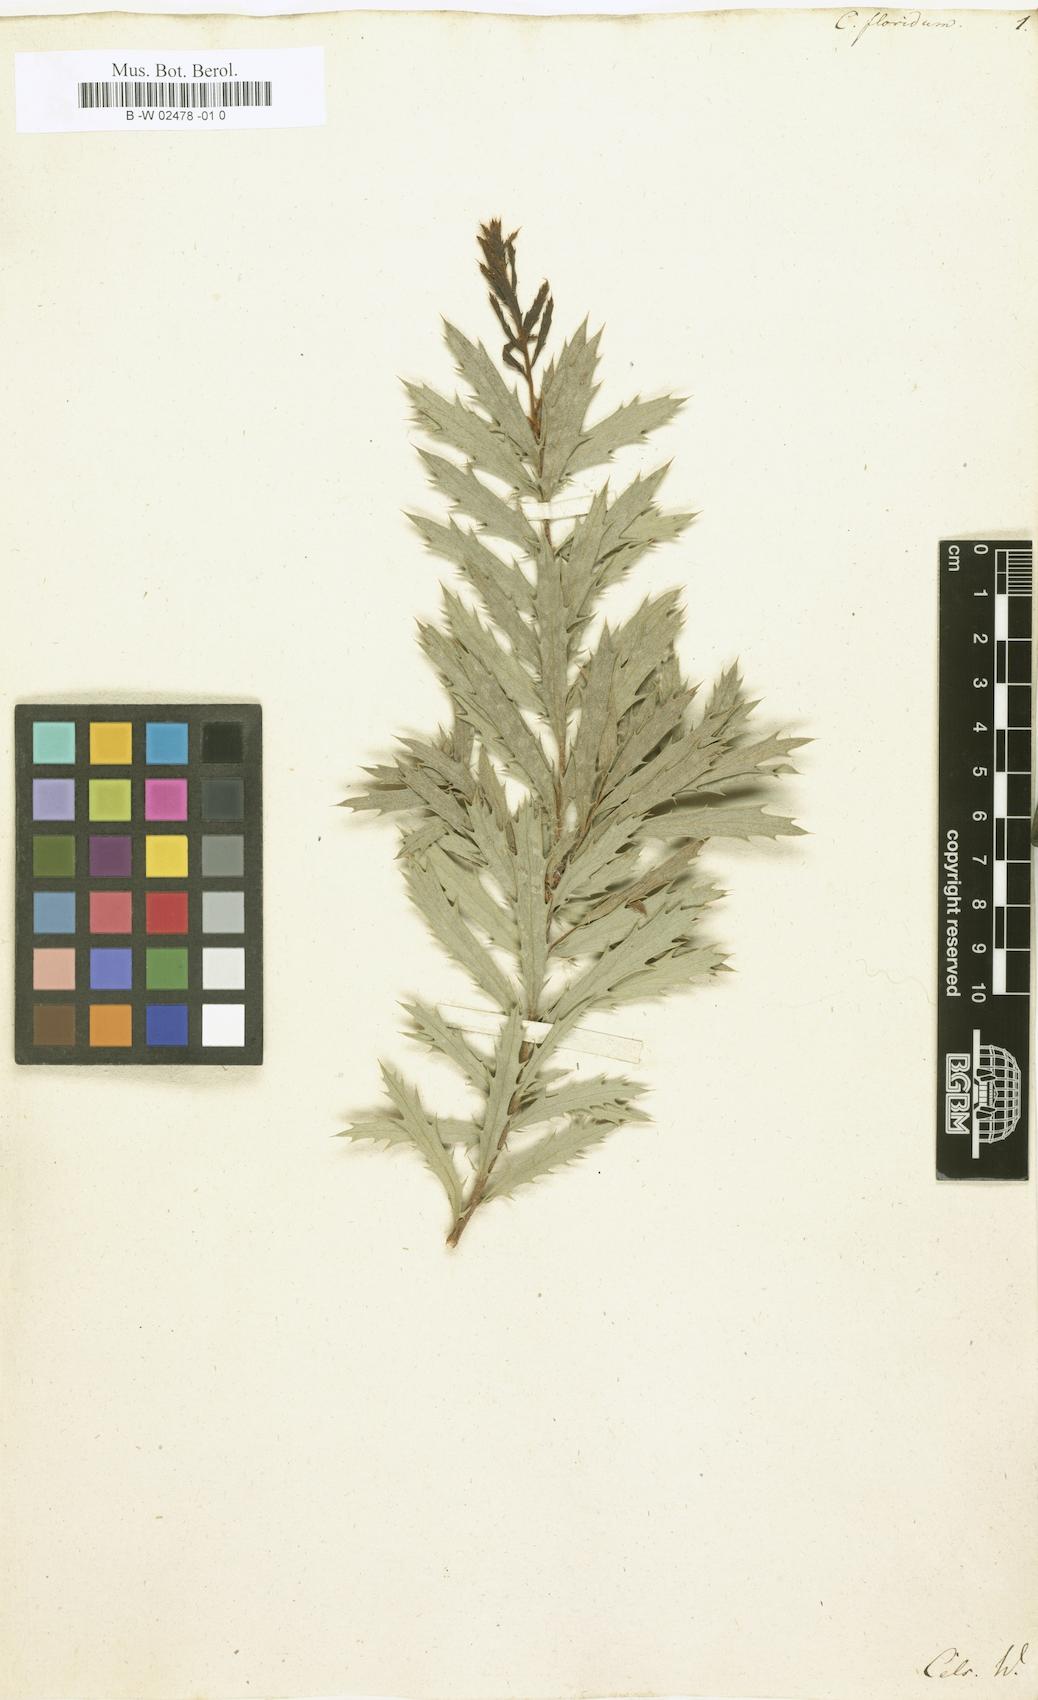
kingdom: Plantae
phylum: Tracheophyta
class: Magnoliopsida
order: Proteales
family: Proteaceae
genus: Hakea
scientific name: Hakea
